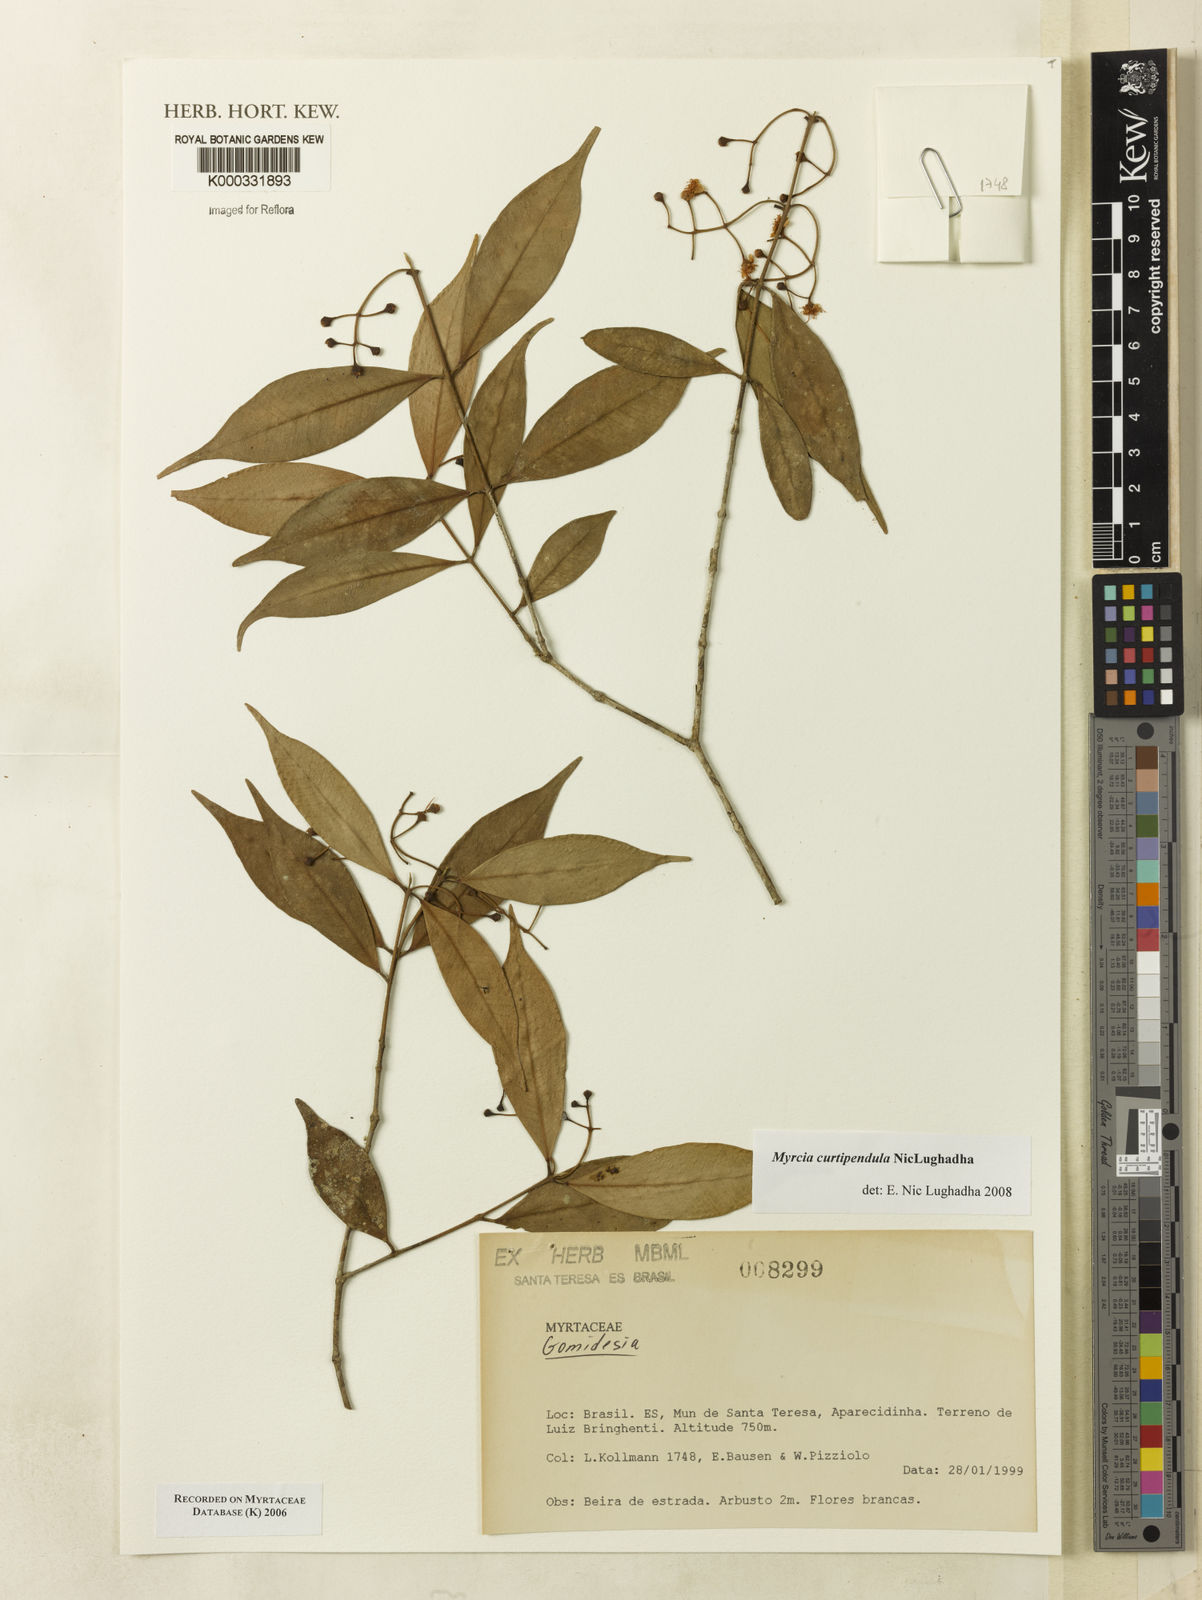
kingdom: Plantae
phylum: Tracheophyta
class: Magnoliopsida
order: Myrtales
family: Myrtaceae
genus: Myrcia
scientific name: Myrcia tijucensis
